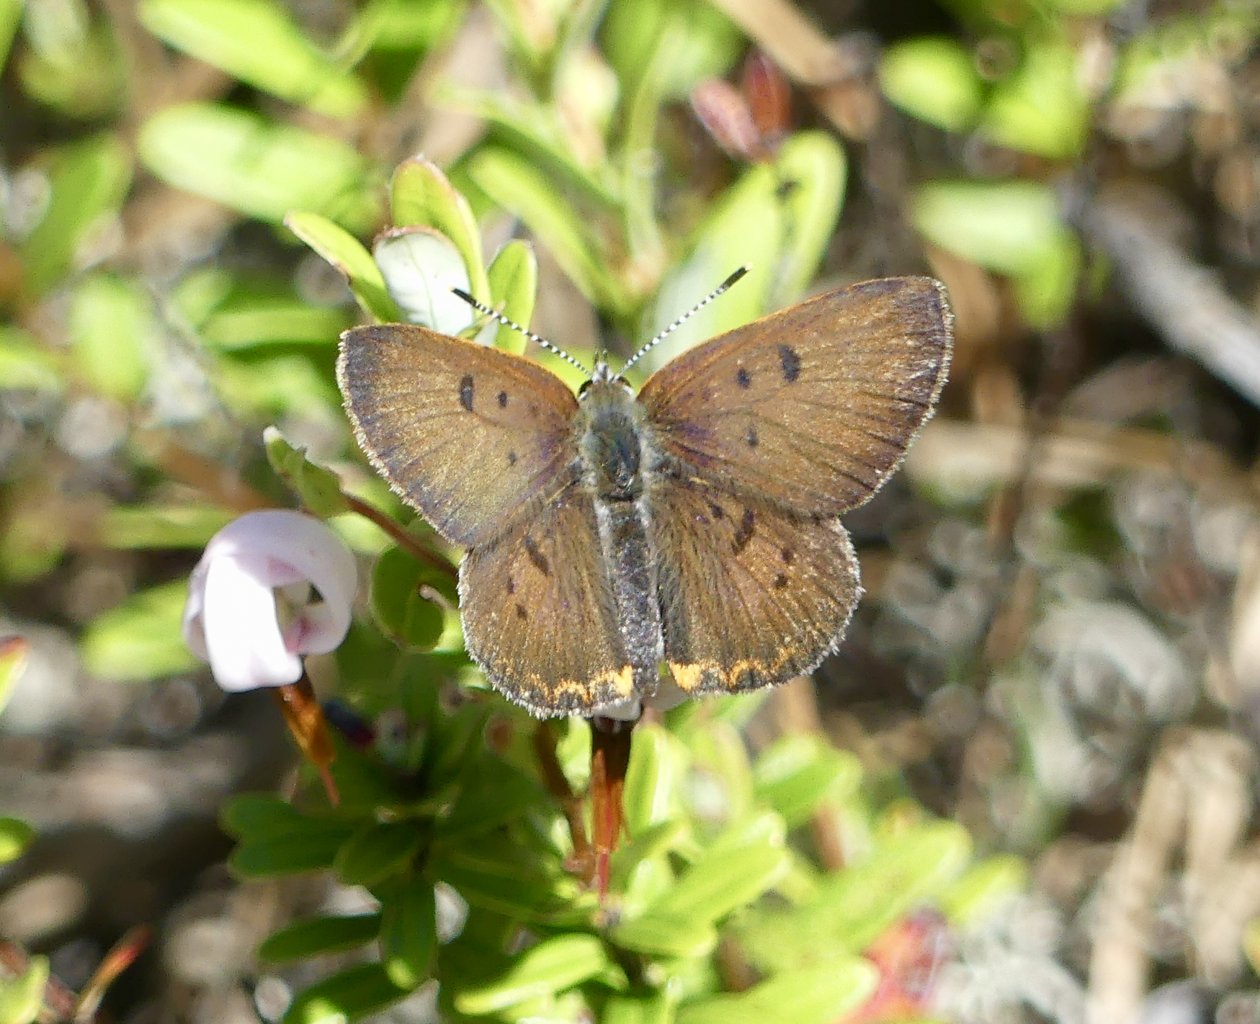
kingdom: Animalia
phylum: Arthropoda
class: Insecta
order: Lepidoptera
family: Sesiidae
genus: Sesia
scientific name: Sesia Lycaena epixanthe
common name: Bog Copper
